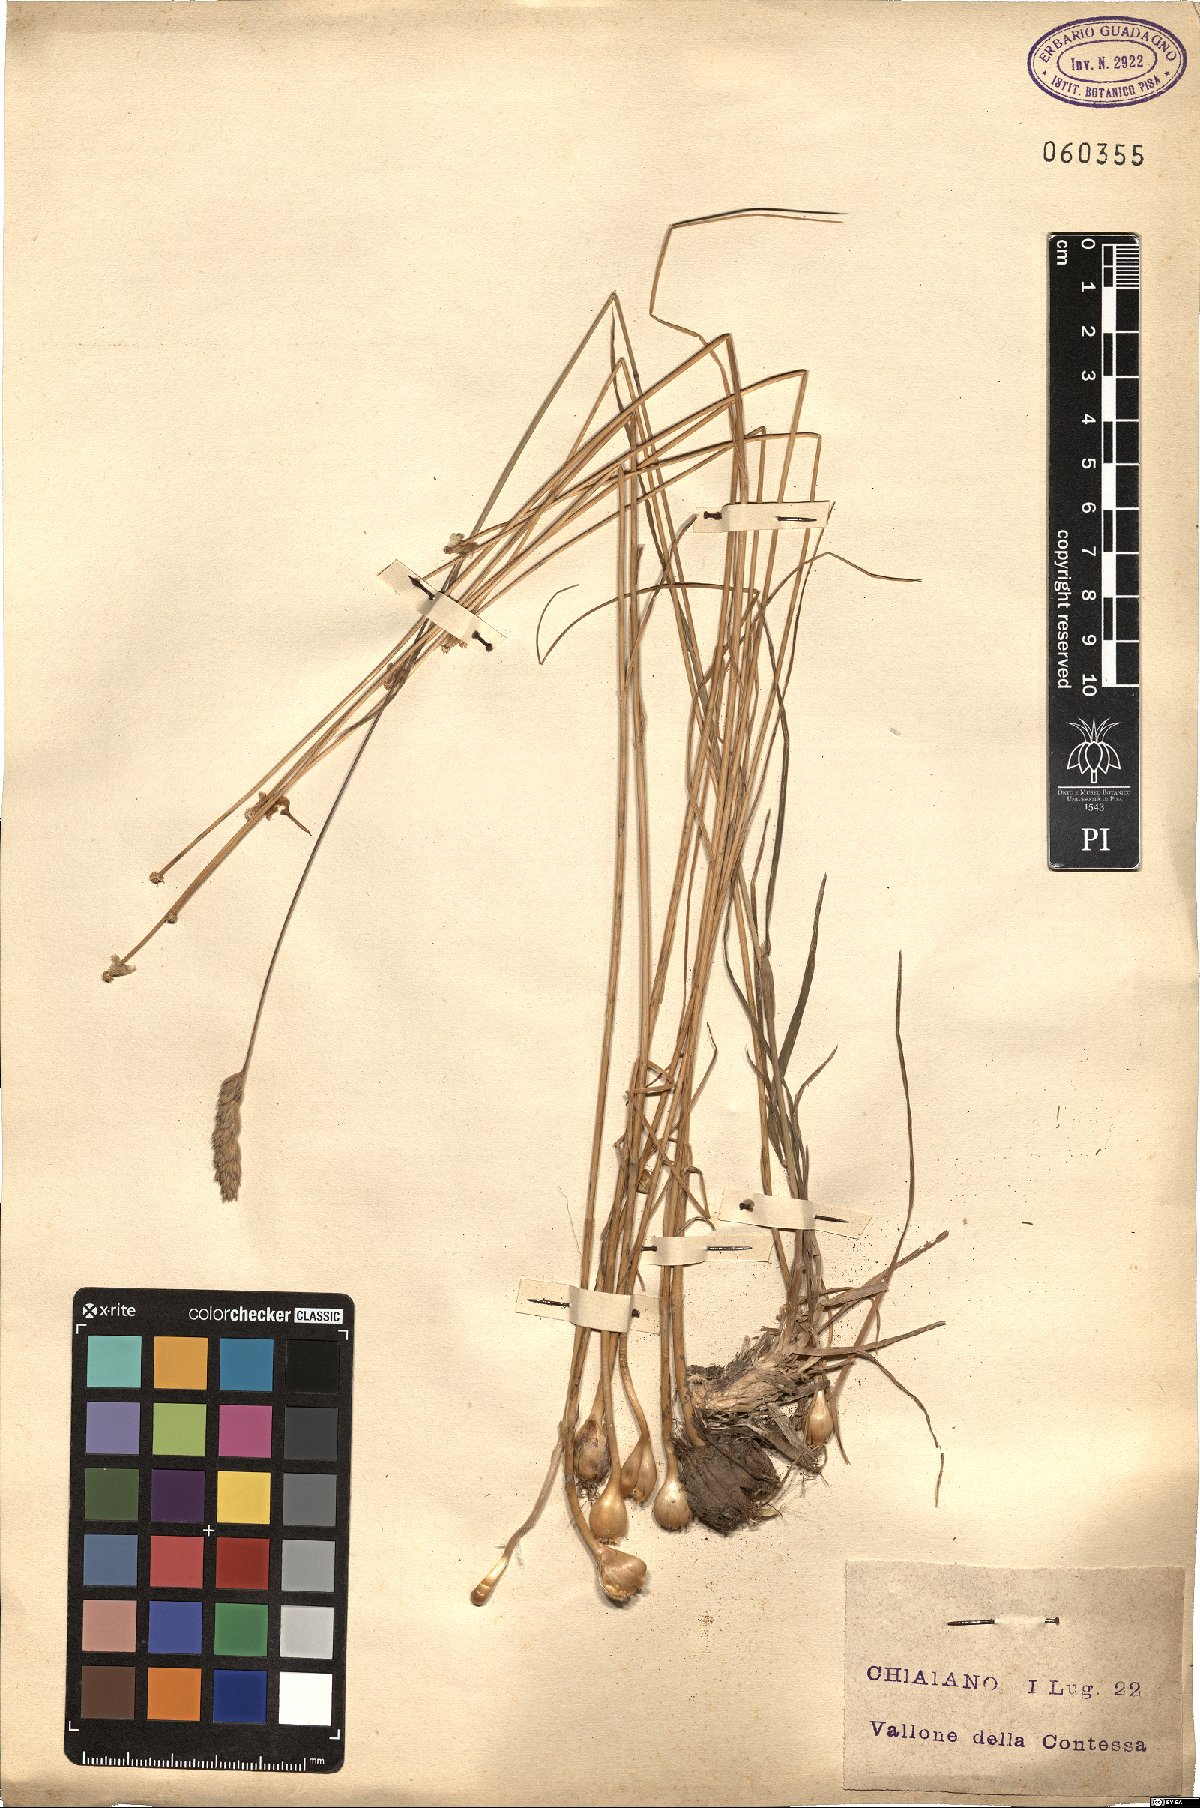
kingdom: Plantae
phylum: Tracheophyta
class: Liliopsida
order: Poales
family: Poaceae
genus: Dactylis
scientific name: Dactylis glomerata
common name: Orchardgrass
